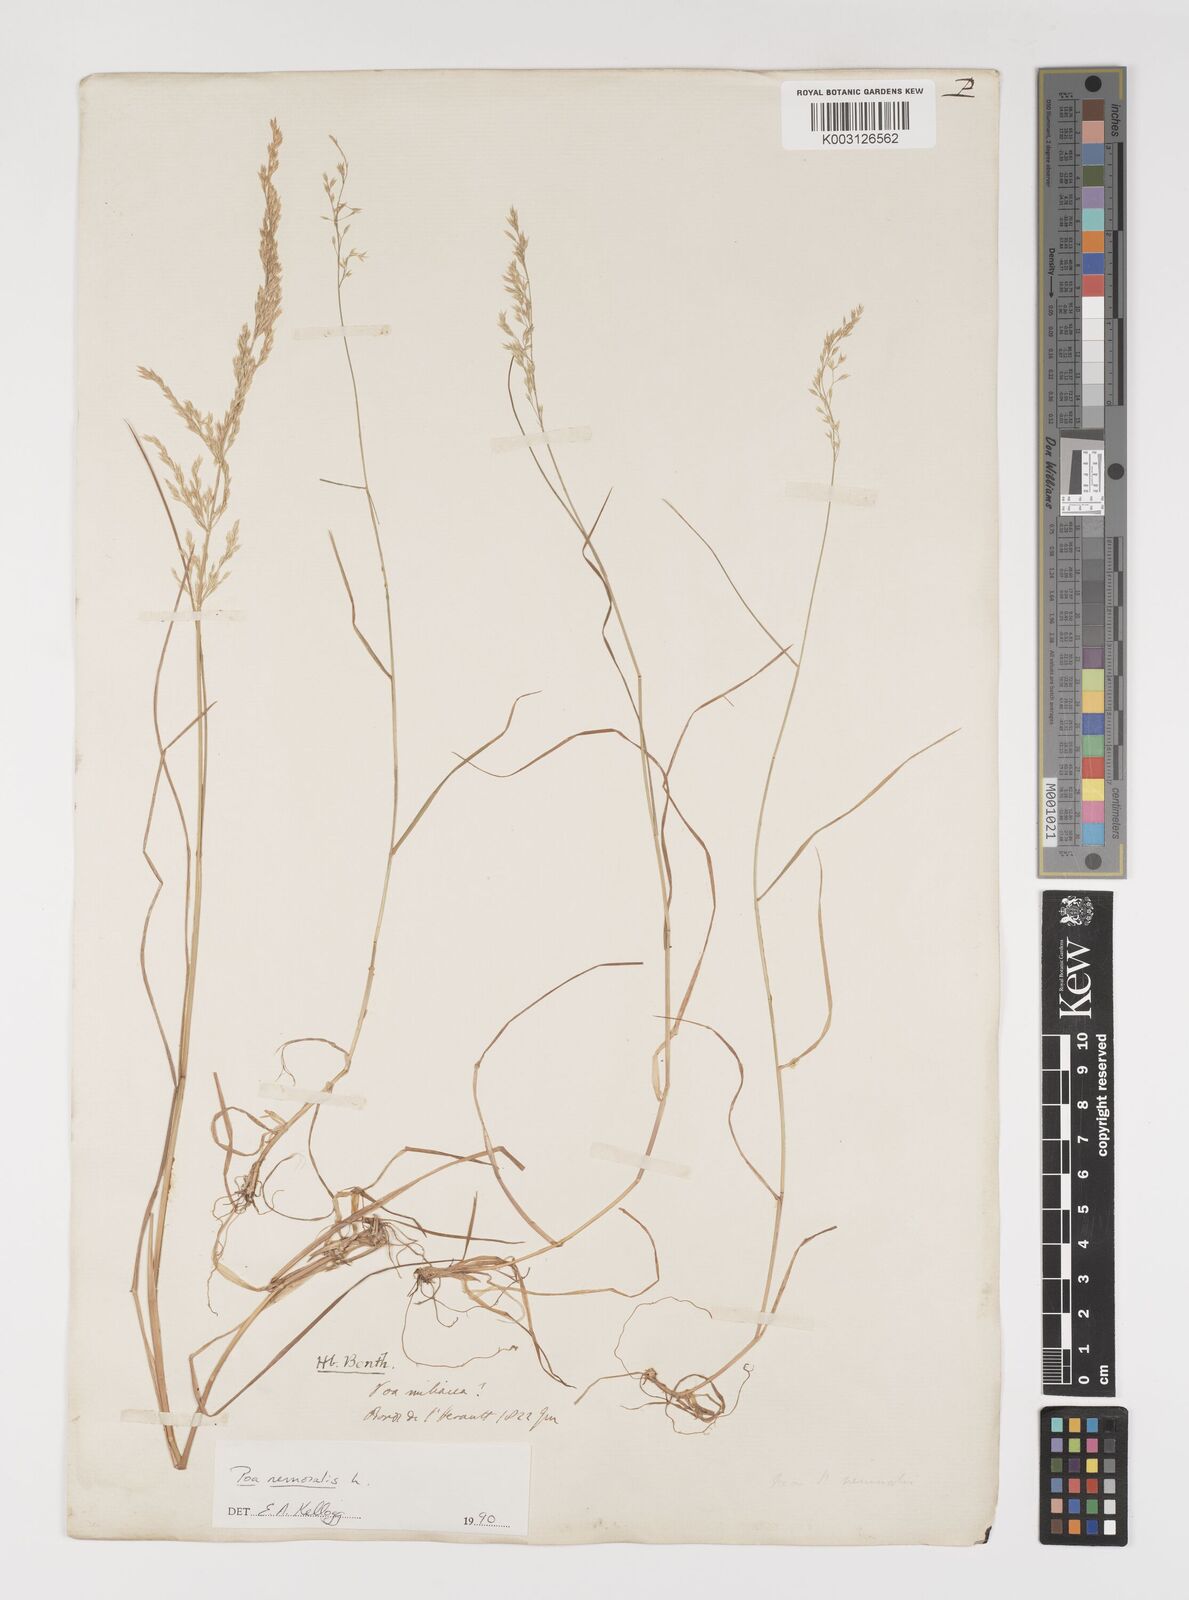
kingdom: Plantae
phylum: Tracheophyta
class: Liliopsida
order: Poales
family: Poaceae
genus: Poa
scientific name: Poa nemoralis
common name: Wood bluegrass
